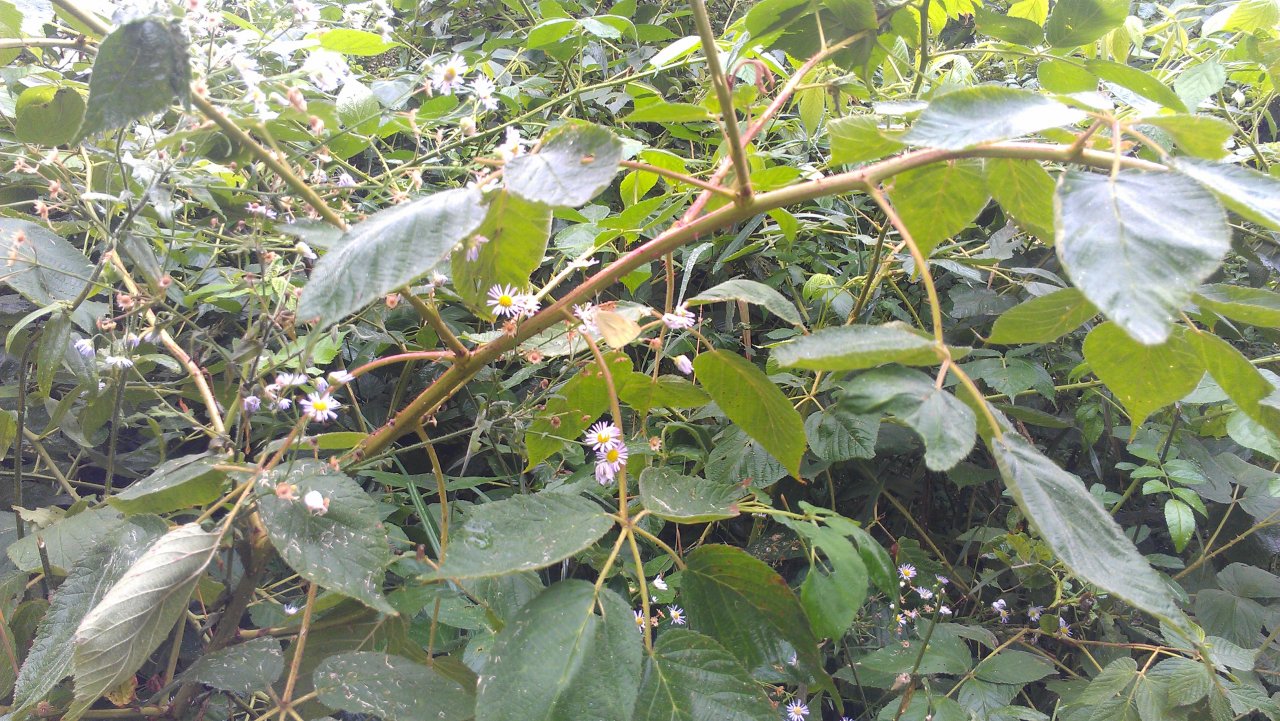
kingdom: Animalia
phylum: Arthropoda
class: Insecta
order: Lepidoptera
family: Pieridae
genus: Pieris
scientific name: Pieris rapae
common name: Cabbage White
